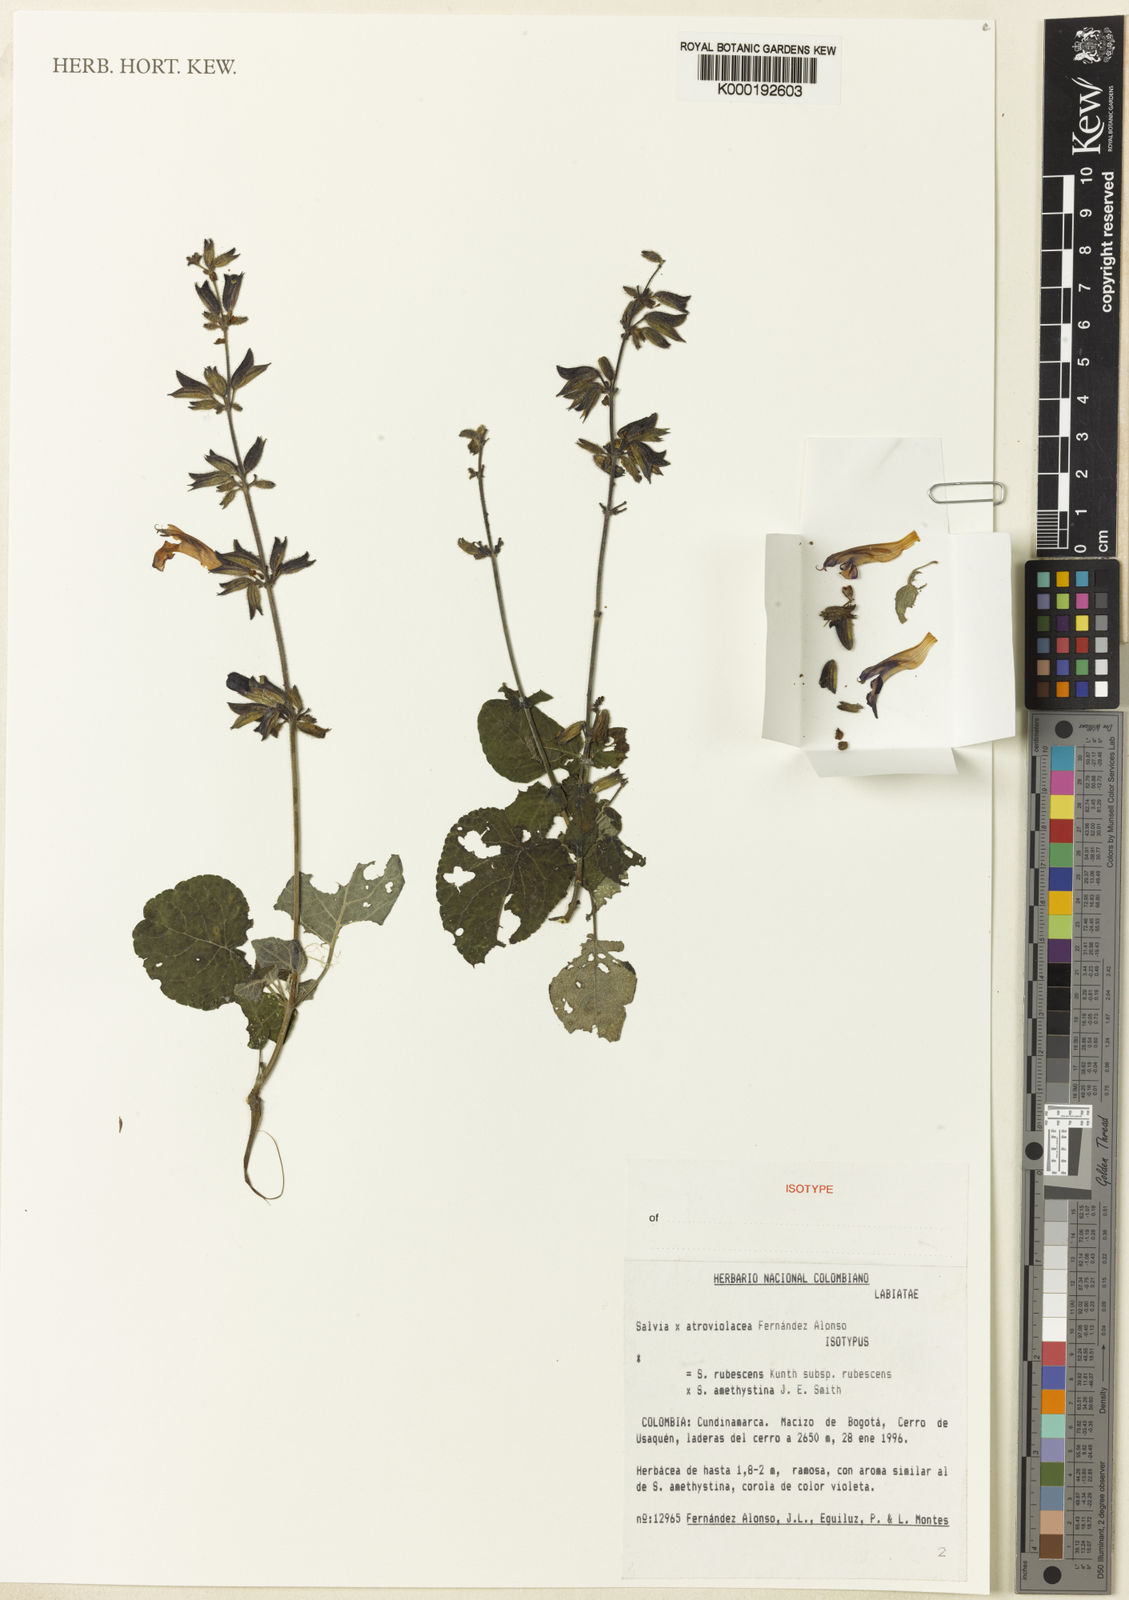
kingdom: Plantae
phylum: Tracheophyta
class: Magnoliopsida
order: Lamiales
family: Lamiaceae
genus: Salvia
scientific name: Salvia atroviolacea
